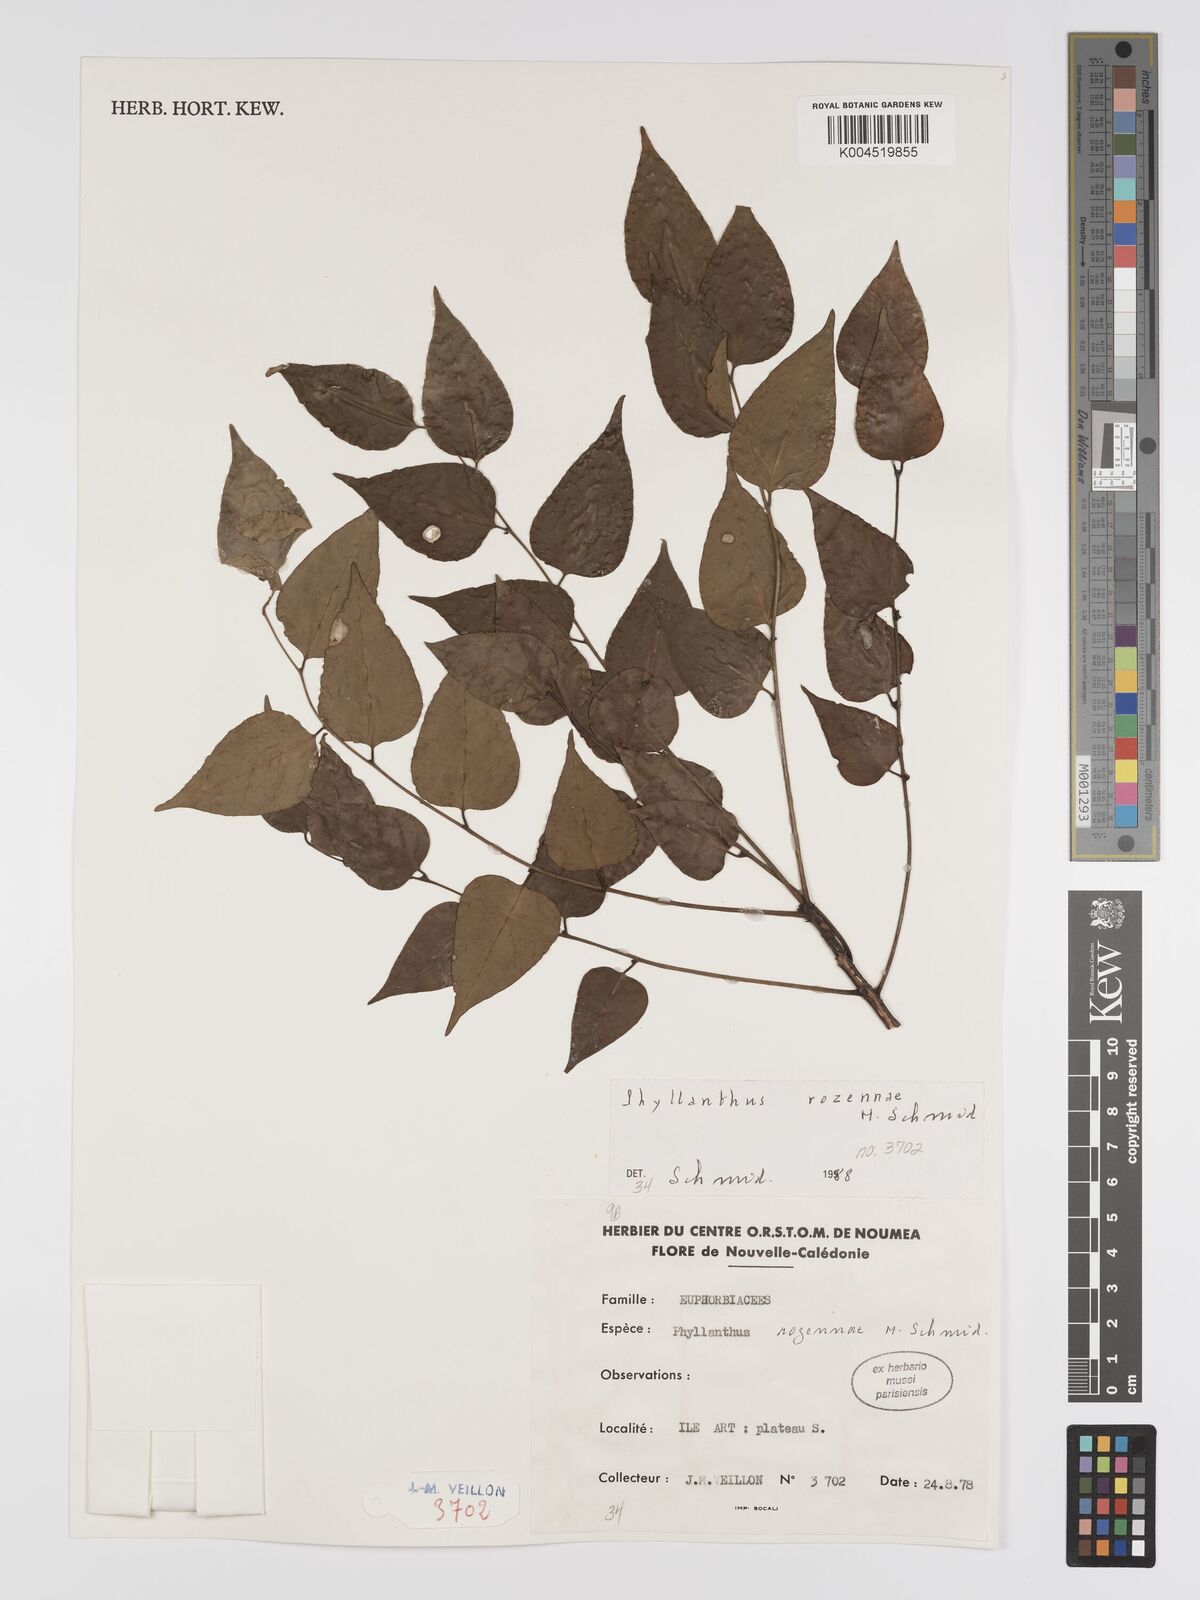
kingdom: Plantae
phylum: Tracheophyta
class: Magnoliopsida
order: Malpighiales
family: Phyllanthaceae
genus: Phyllanthus
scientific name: Phyllanthus rozennae
